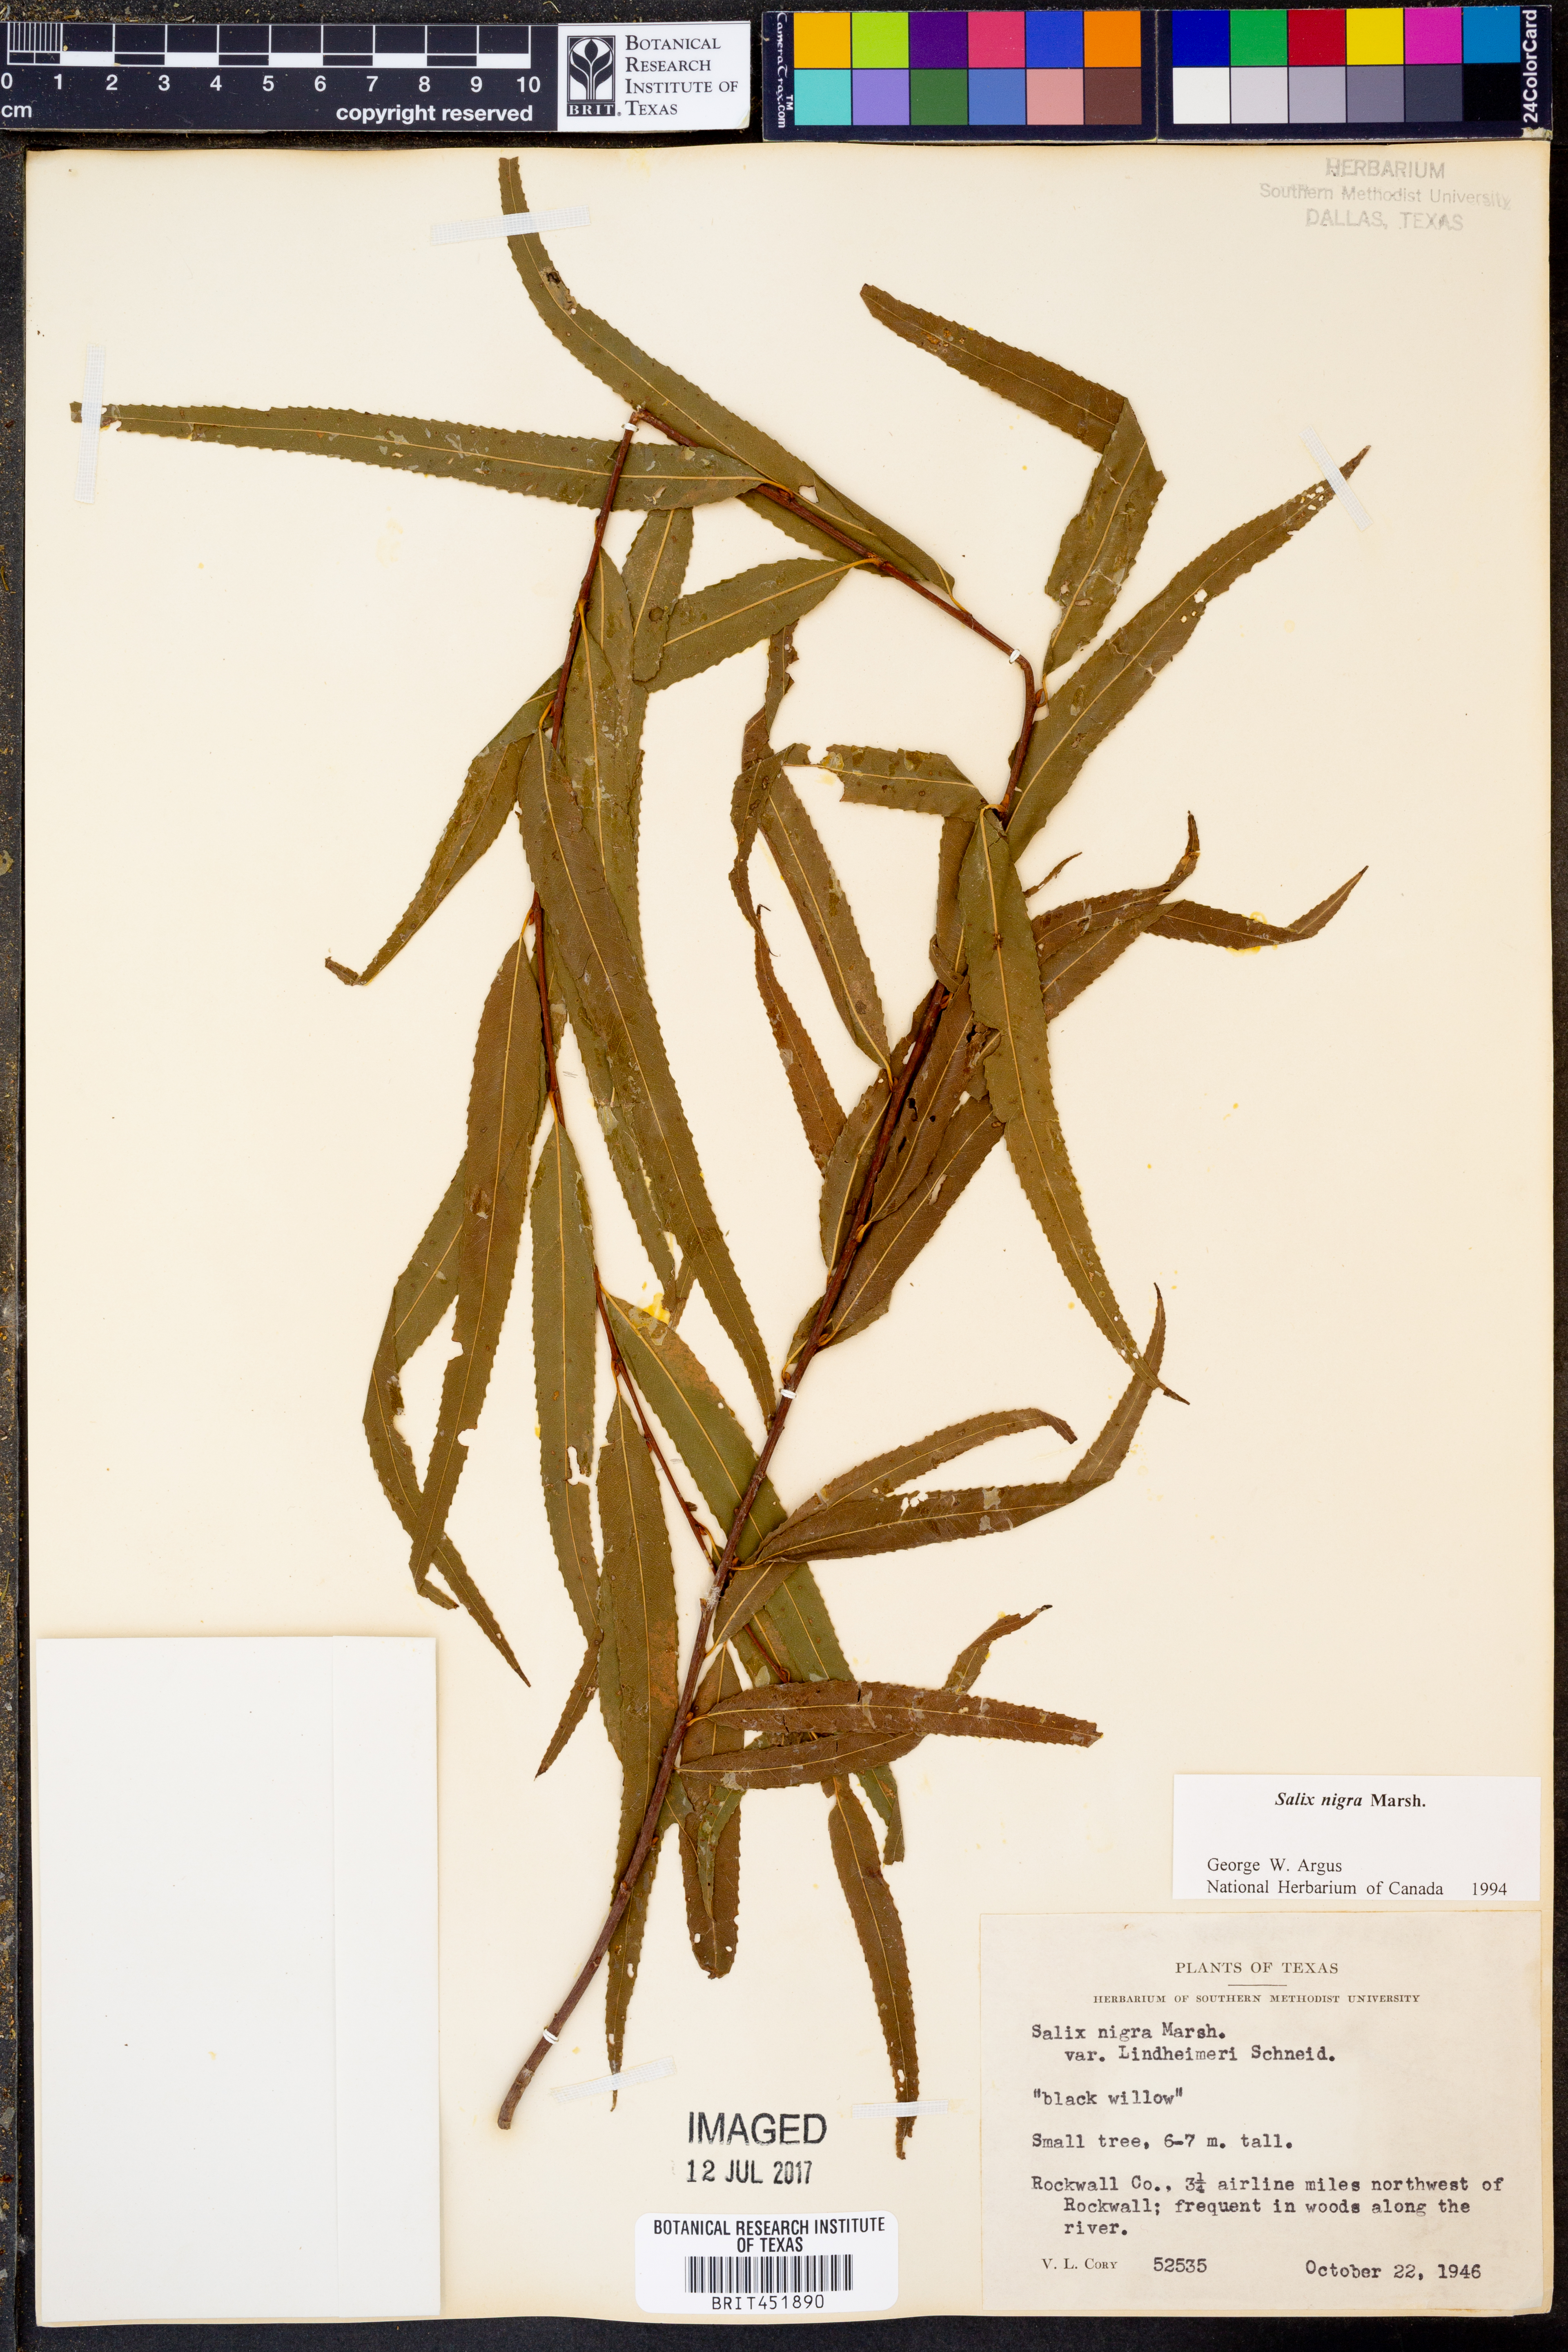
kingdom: Plantae
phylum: Tracheophyta
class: Magnoliopsida
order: Malpighiales
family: Salicaceae
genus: Salix
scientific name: Salix nigra
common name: Black willow
